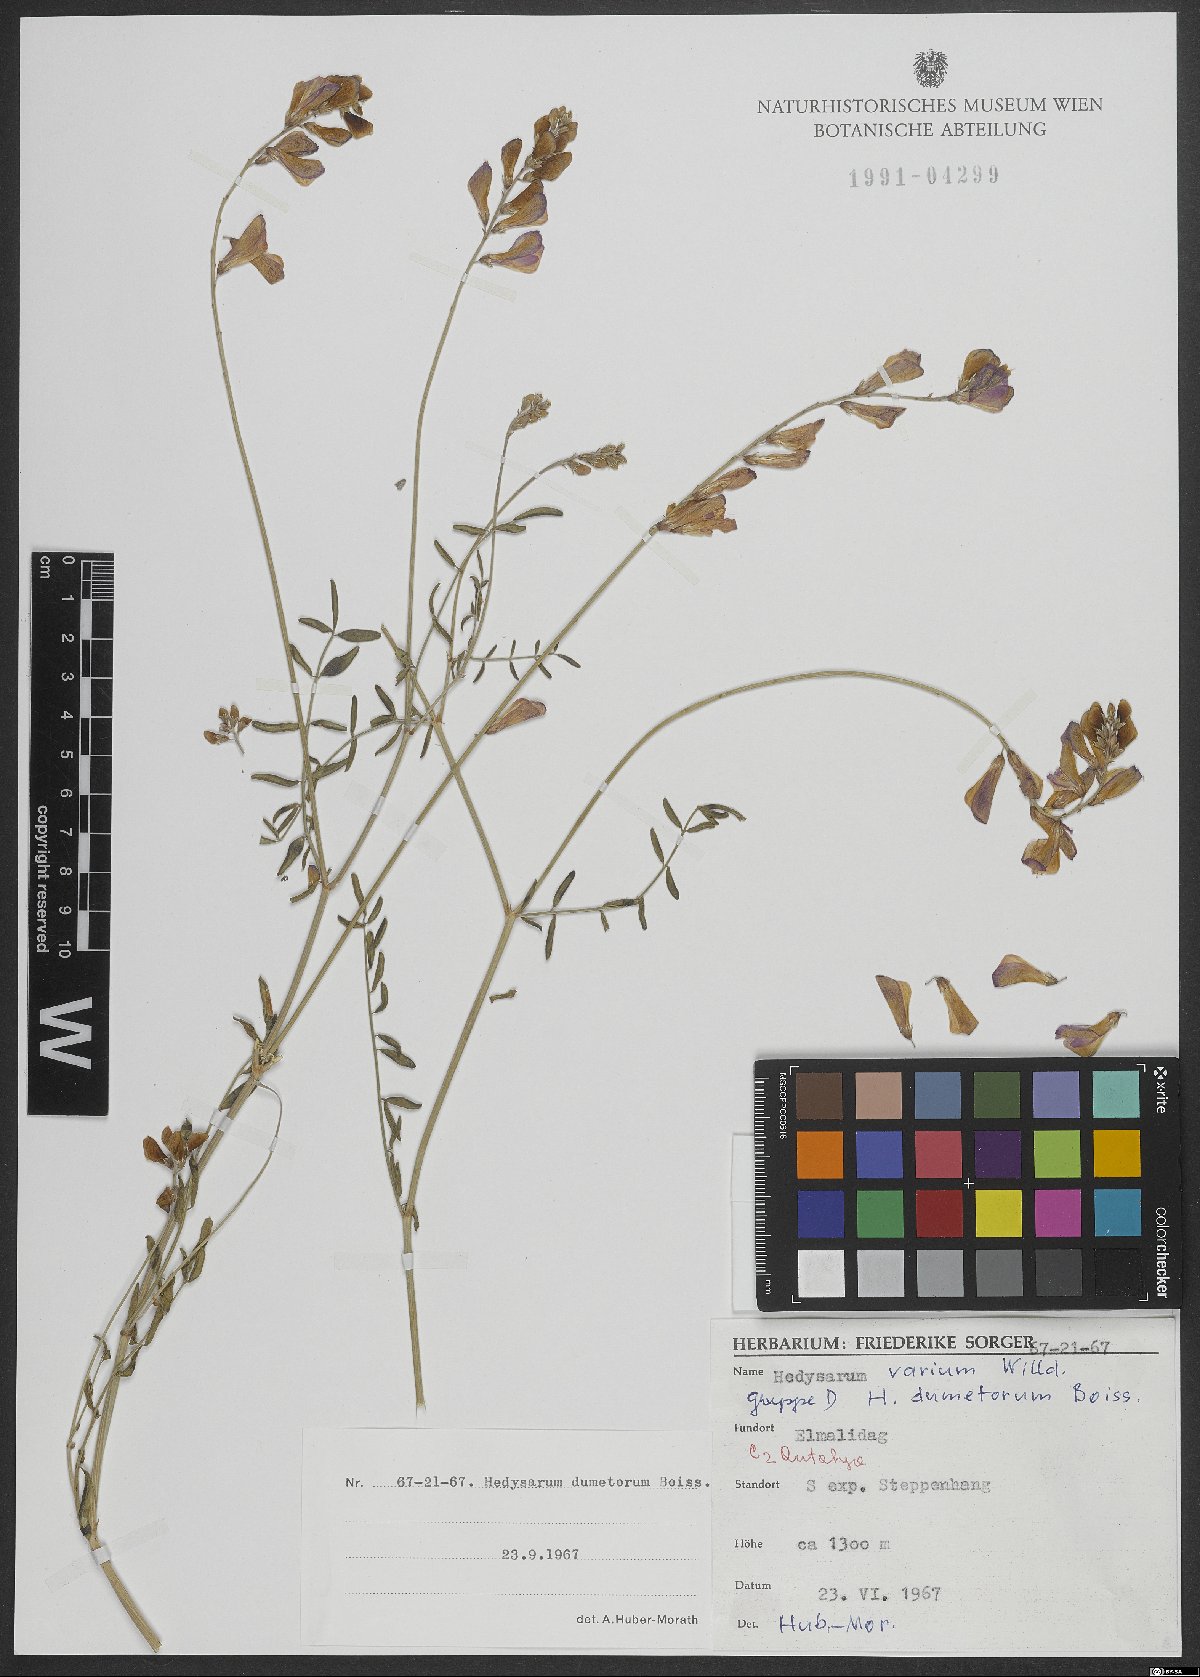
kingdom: Plantae
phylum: Tracheophyta
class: Magnoliopsida
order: Fabales
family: Fabaceae
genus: Hedysarum
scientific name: Hedysarum varium
